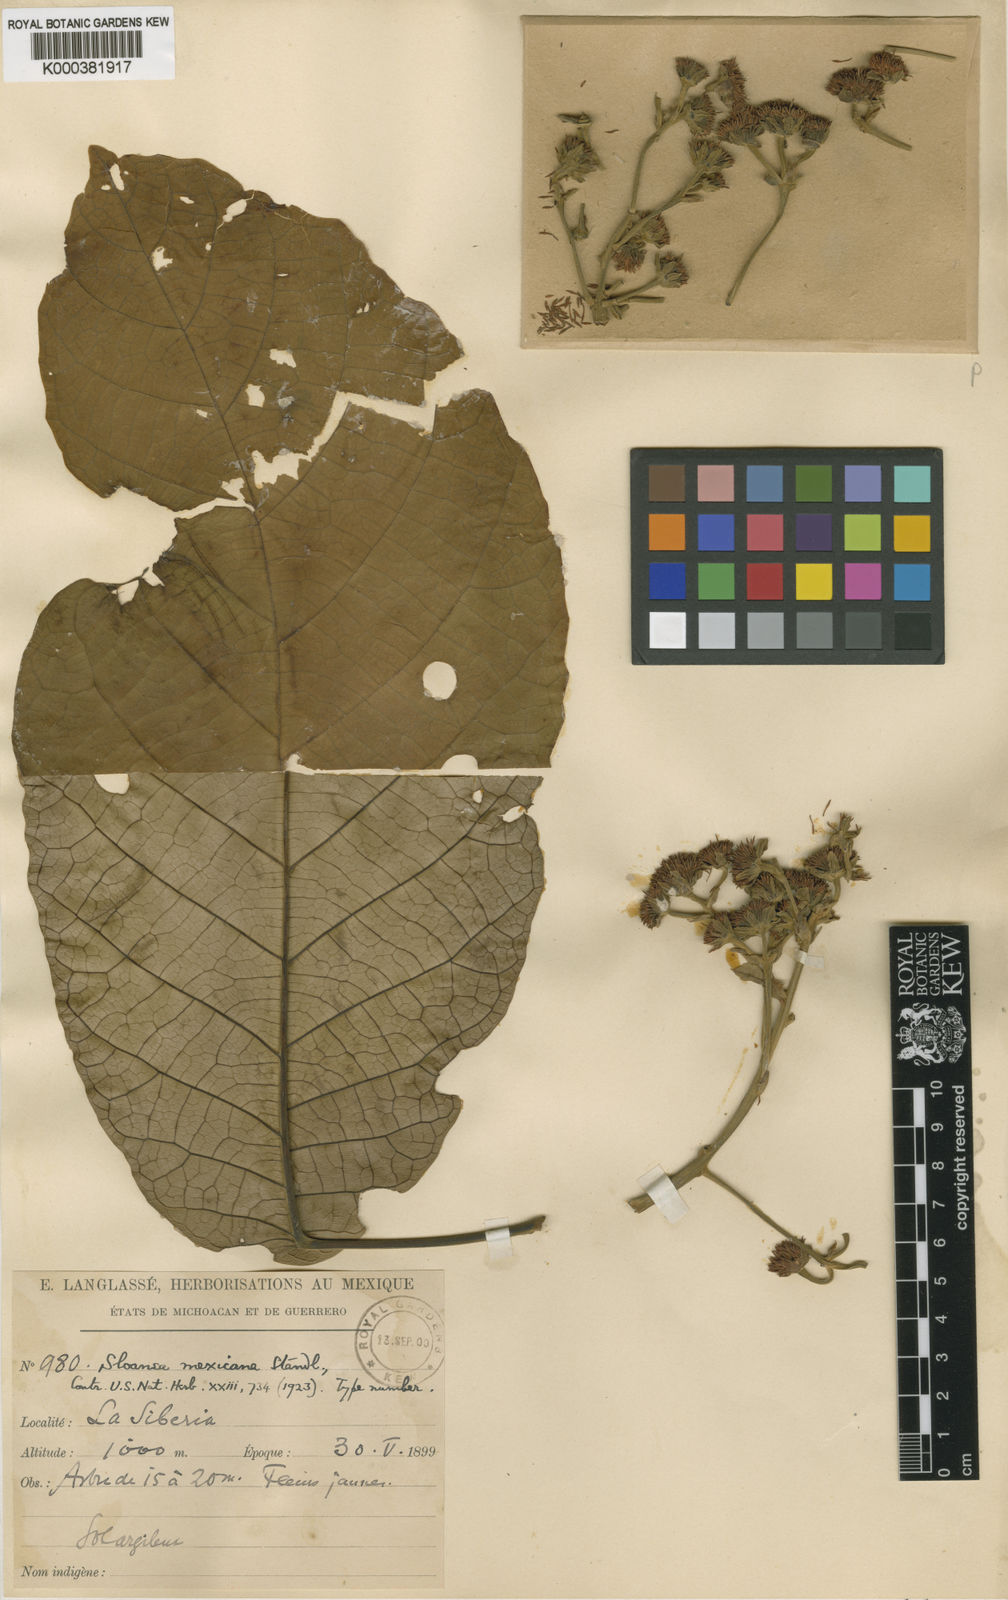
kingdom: Plantae
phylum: Tracheophyta
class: Magnoliopsida
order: Oxalidales
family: Elaeocarpaceae
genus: Sloanea
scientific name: Sloanea mexicana
